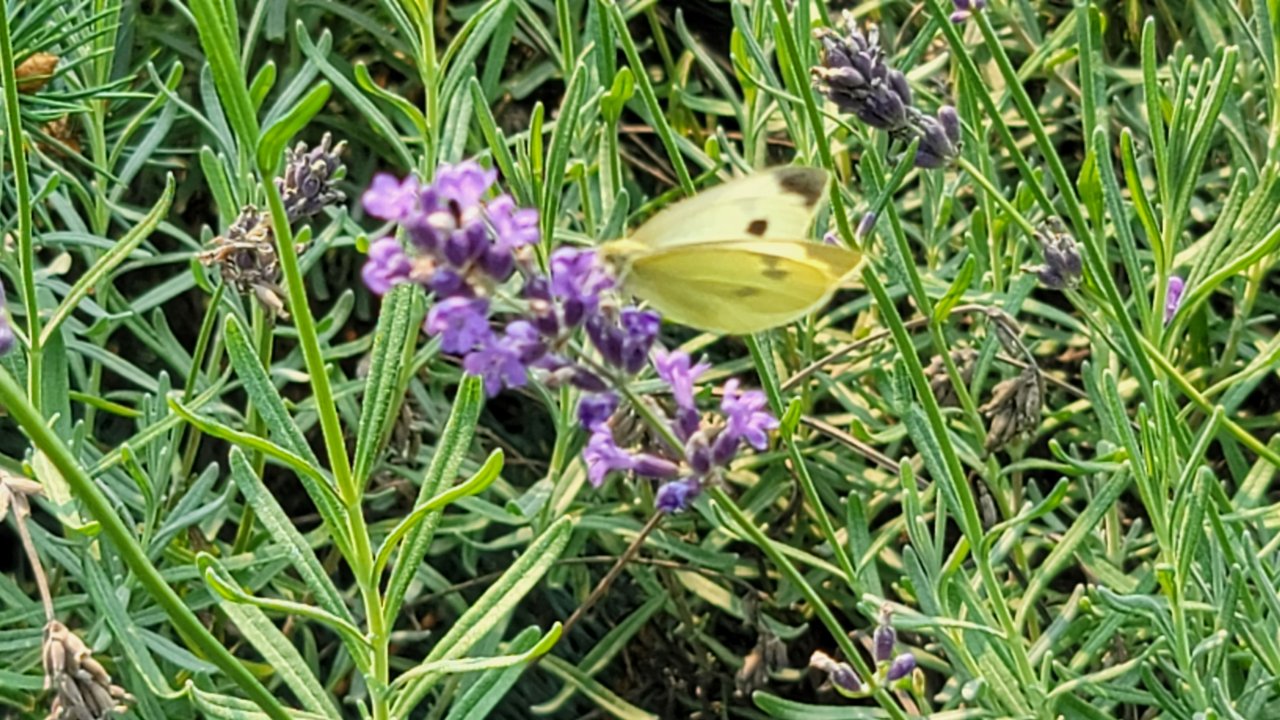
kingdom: Animalia
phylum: Arthropoda
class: Insecta
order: Lepidoptera
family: Pieridae
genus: Pieris
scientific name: Pieris rapae
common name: Cabbage White
